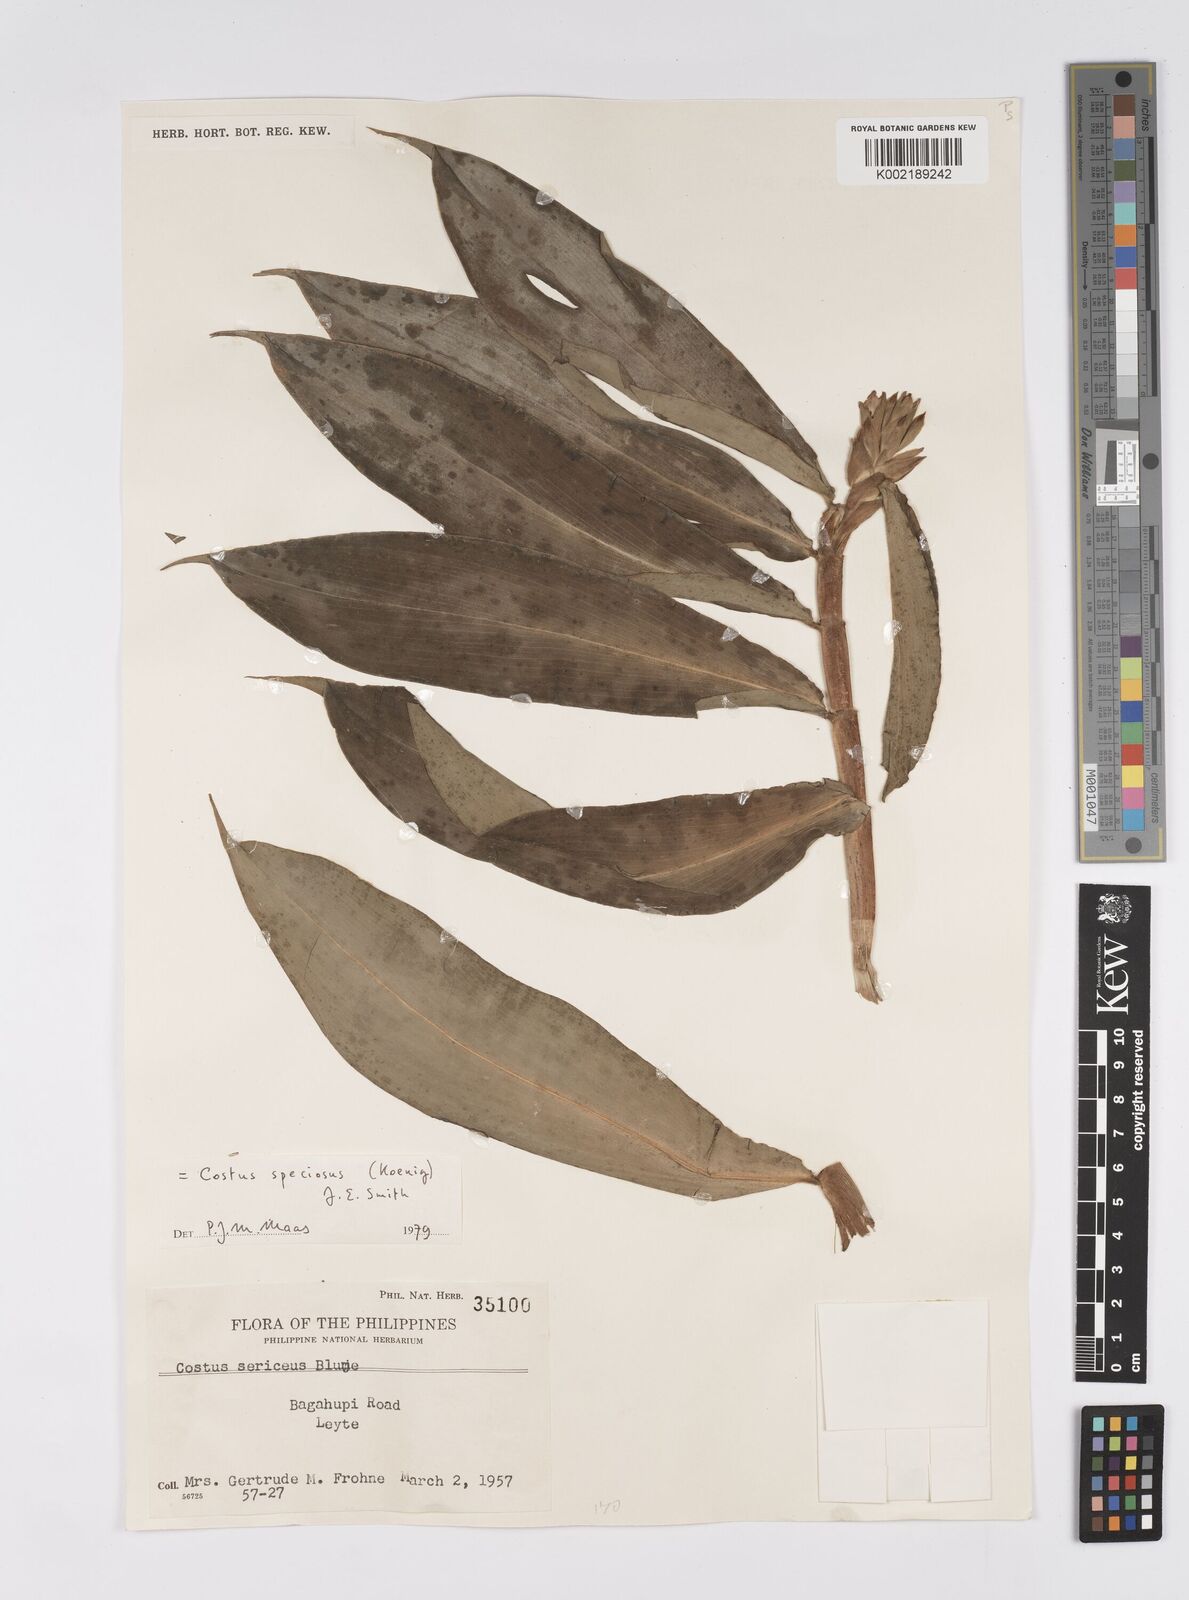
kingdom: Plantae
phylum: Tracheophyta
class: Liliopsida
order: Zingiberales
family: Costaceae
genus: Hellenia
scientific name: Hellenia speciosa
